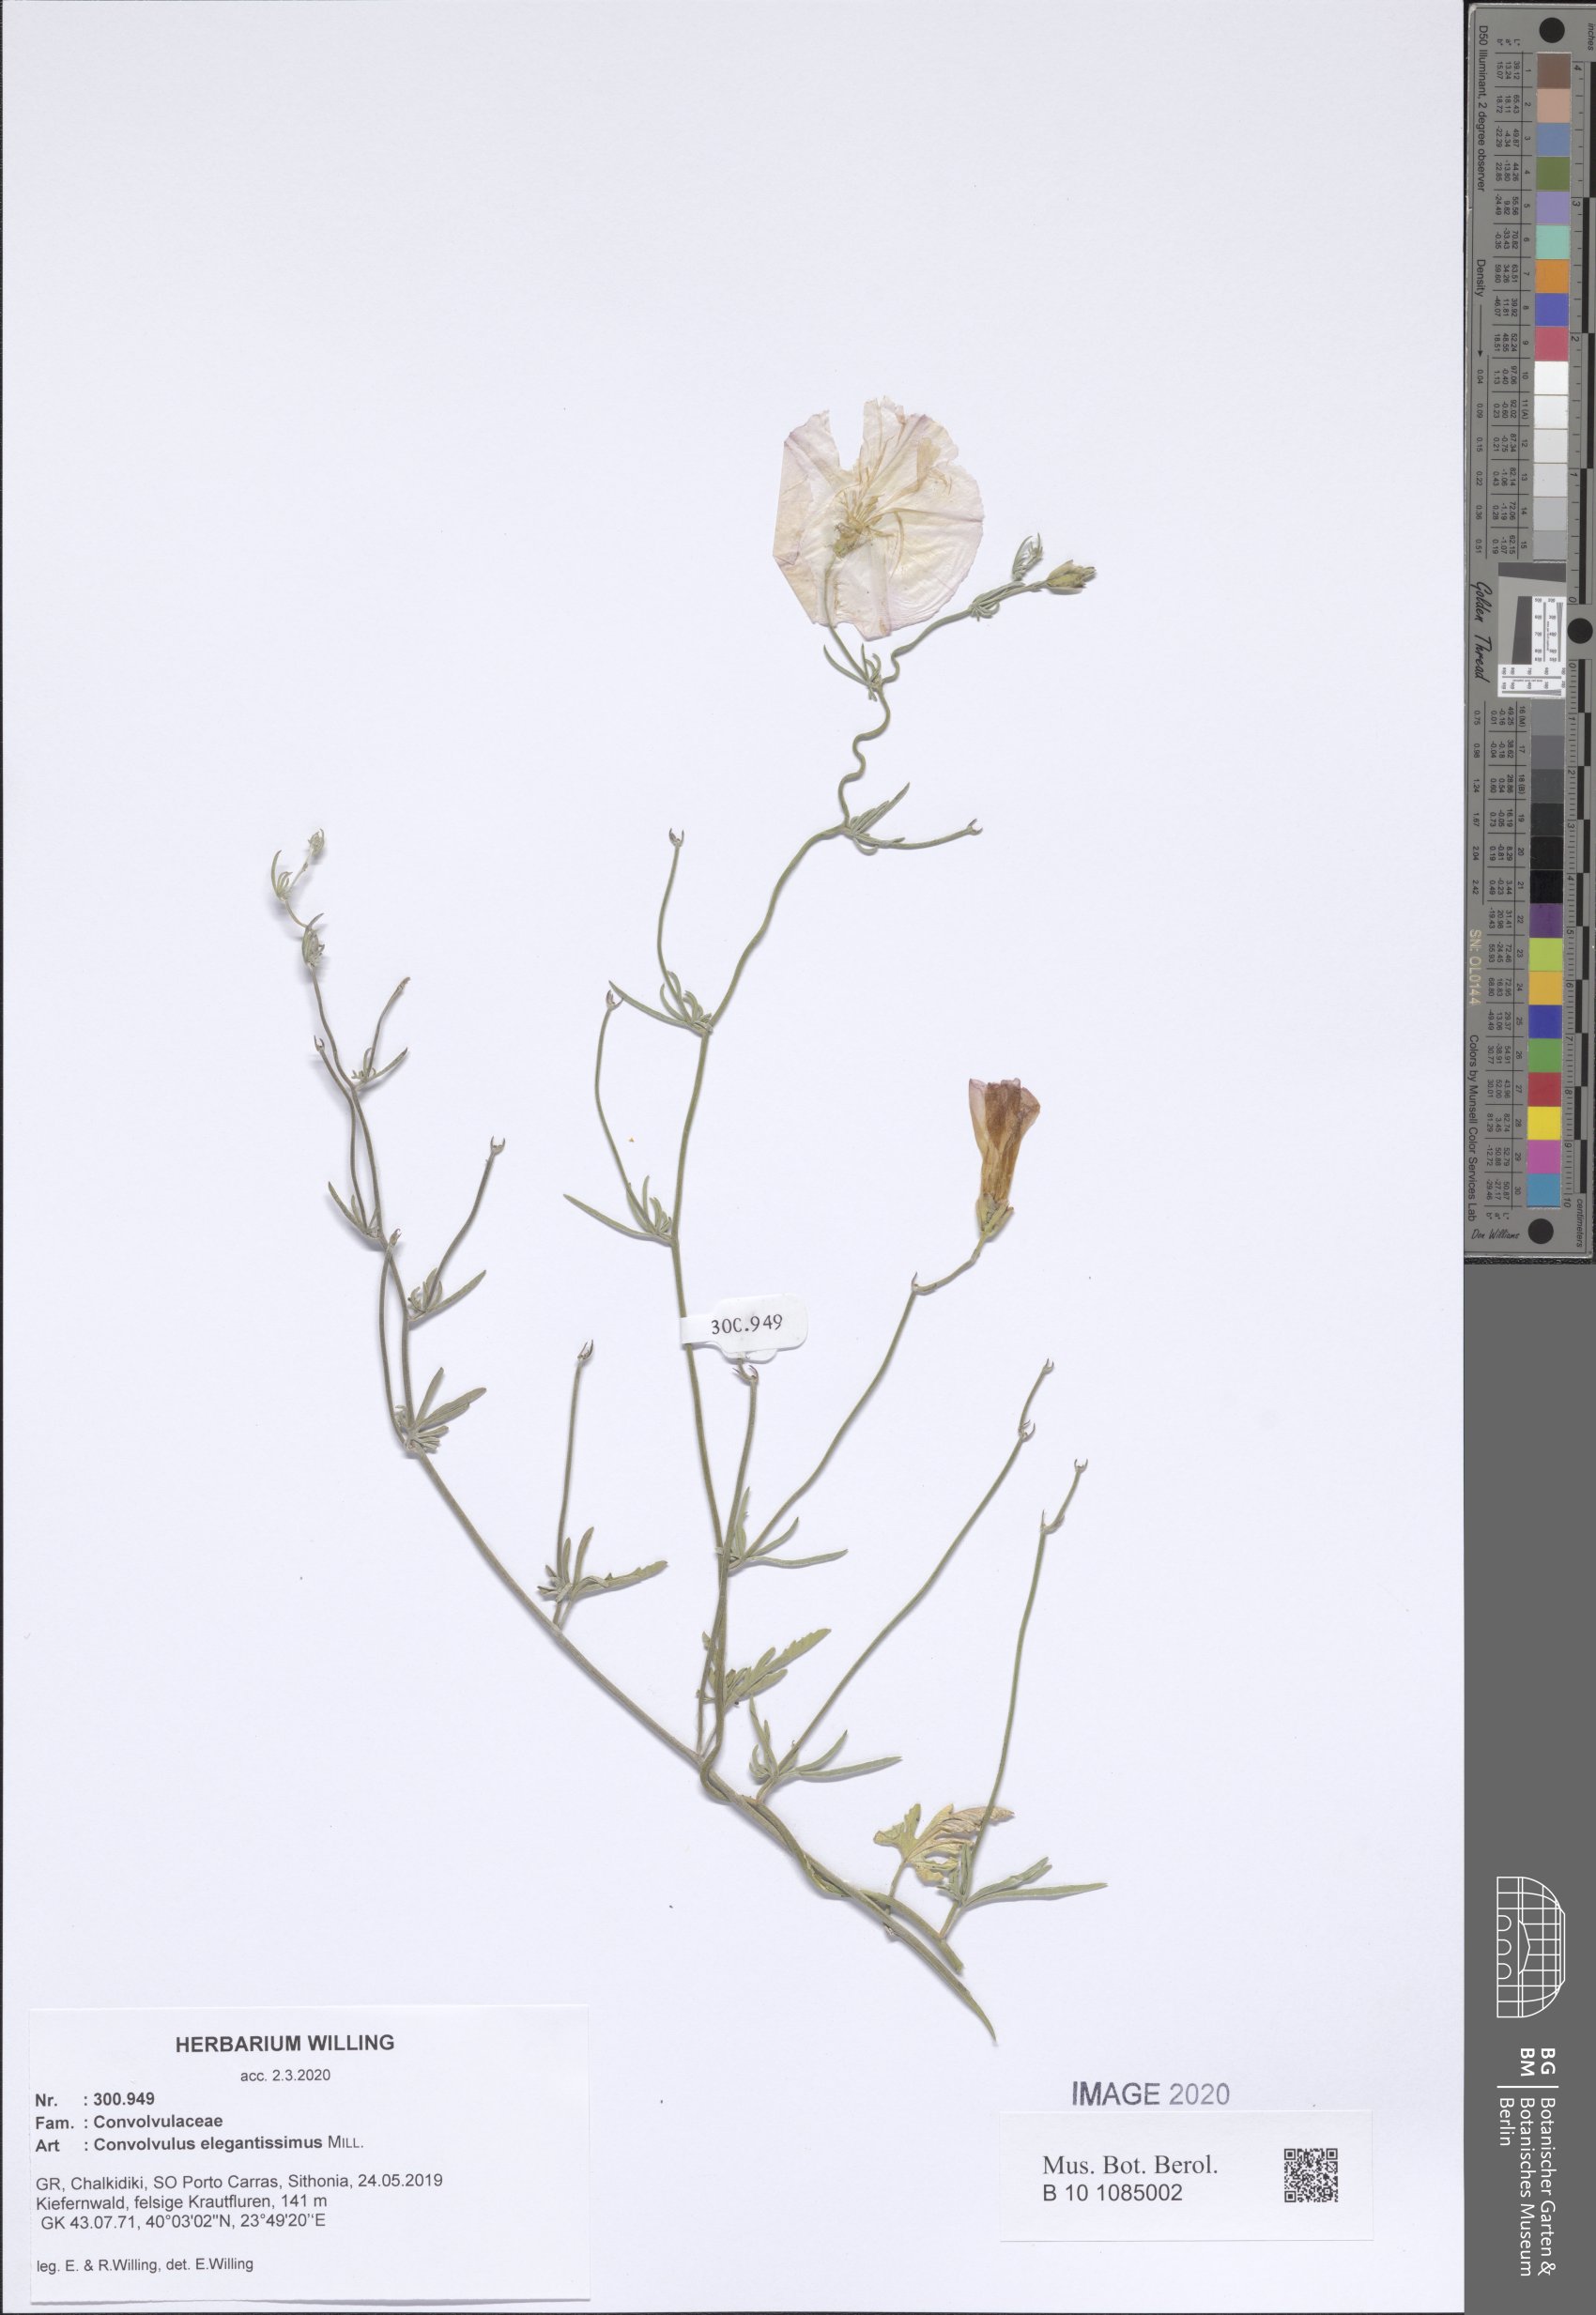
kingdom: Plantae
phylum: Tracheophyta
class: Magnoliopsida
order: Solanales
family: Convolvulaceae
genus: Convolvulus
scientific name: Convolvulus elegantissimus
